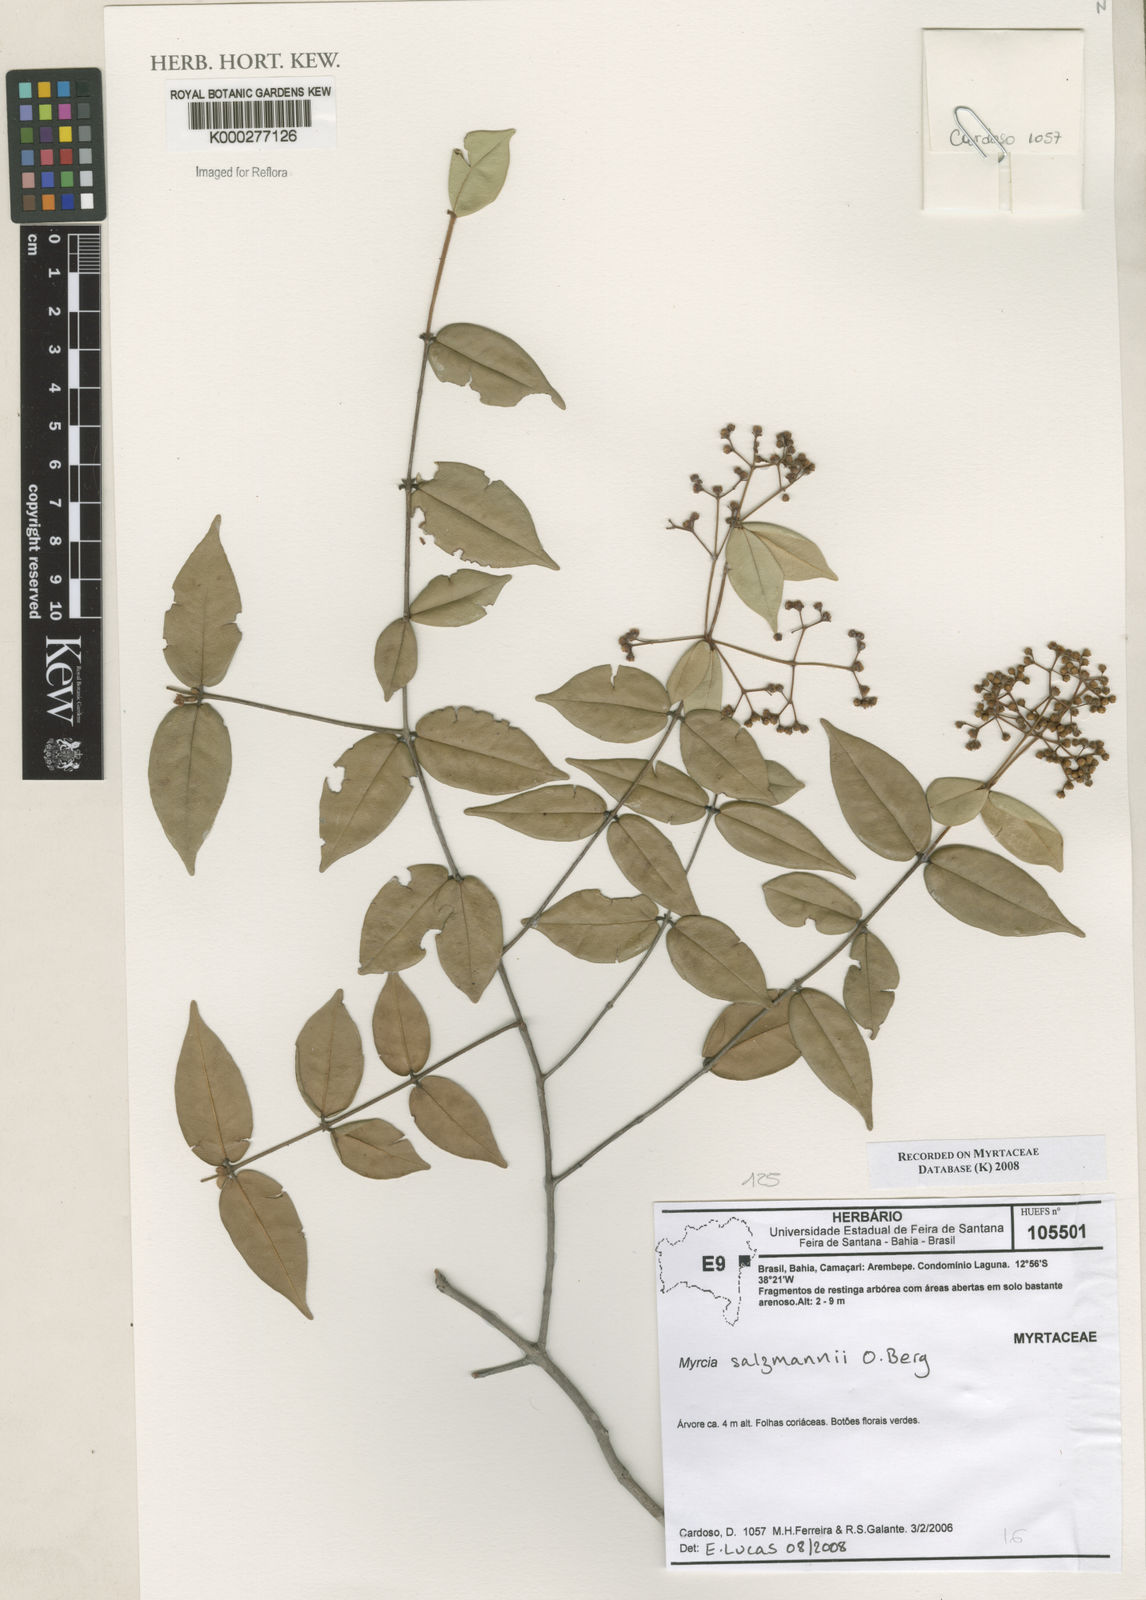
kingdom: Plantae
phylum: Tracheophyta
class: Magnoliopsida
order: Myrtales
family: Myrtaceae
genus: Myrcia
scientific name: Myrcia salzmannii
